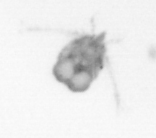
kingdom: Animalia
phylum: Arthropoda
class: Copepoda
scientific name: Copepoda
